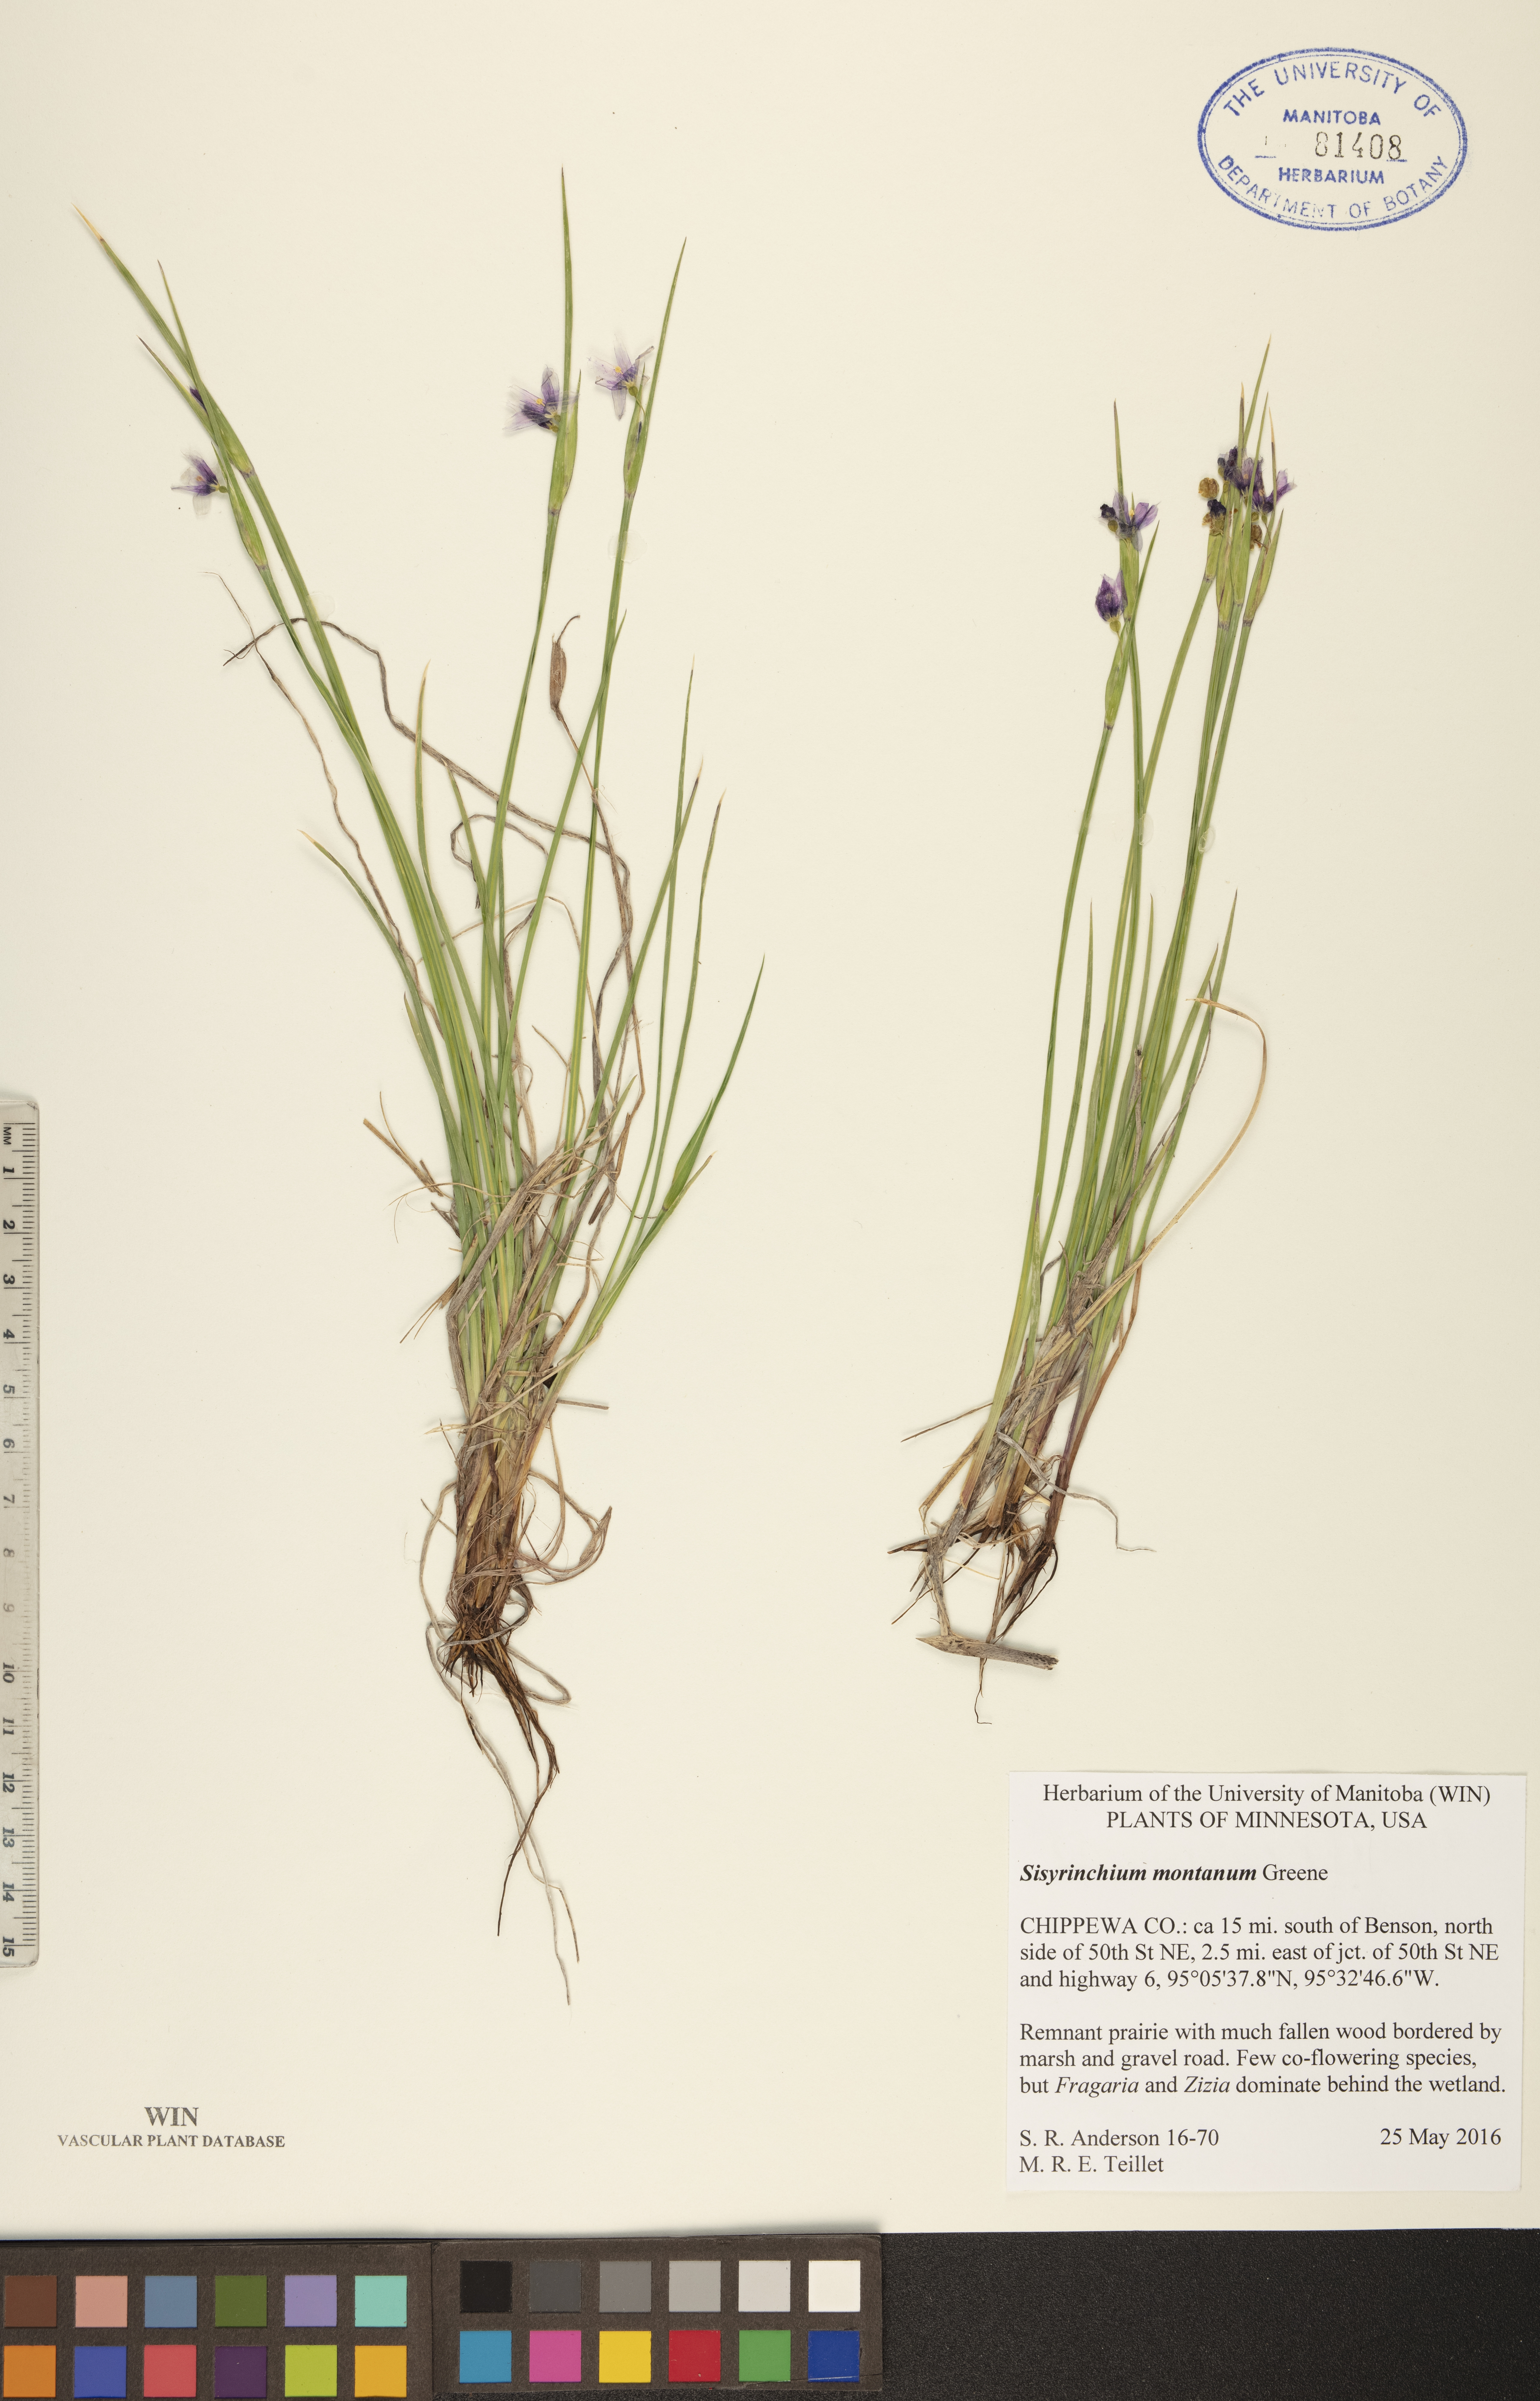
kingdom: Plantae
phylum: Tracheophyta
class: Liliopsida
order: Asparagales
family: Iridaceae
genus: Sisyrinchium
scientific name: Sisyrinchium montanum
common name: American blue-eyed-grass
